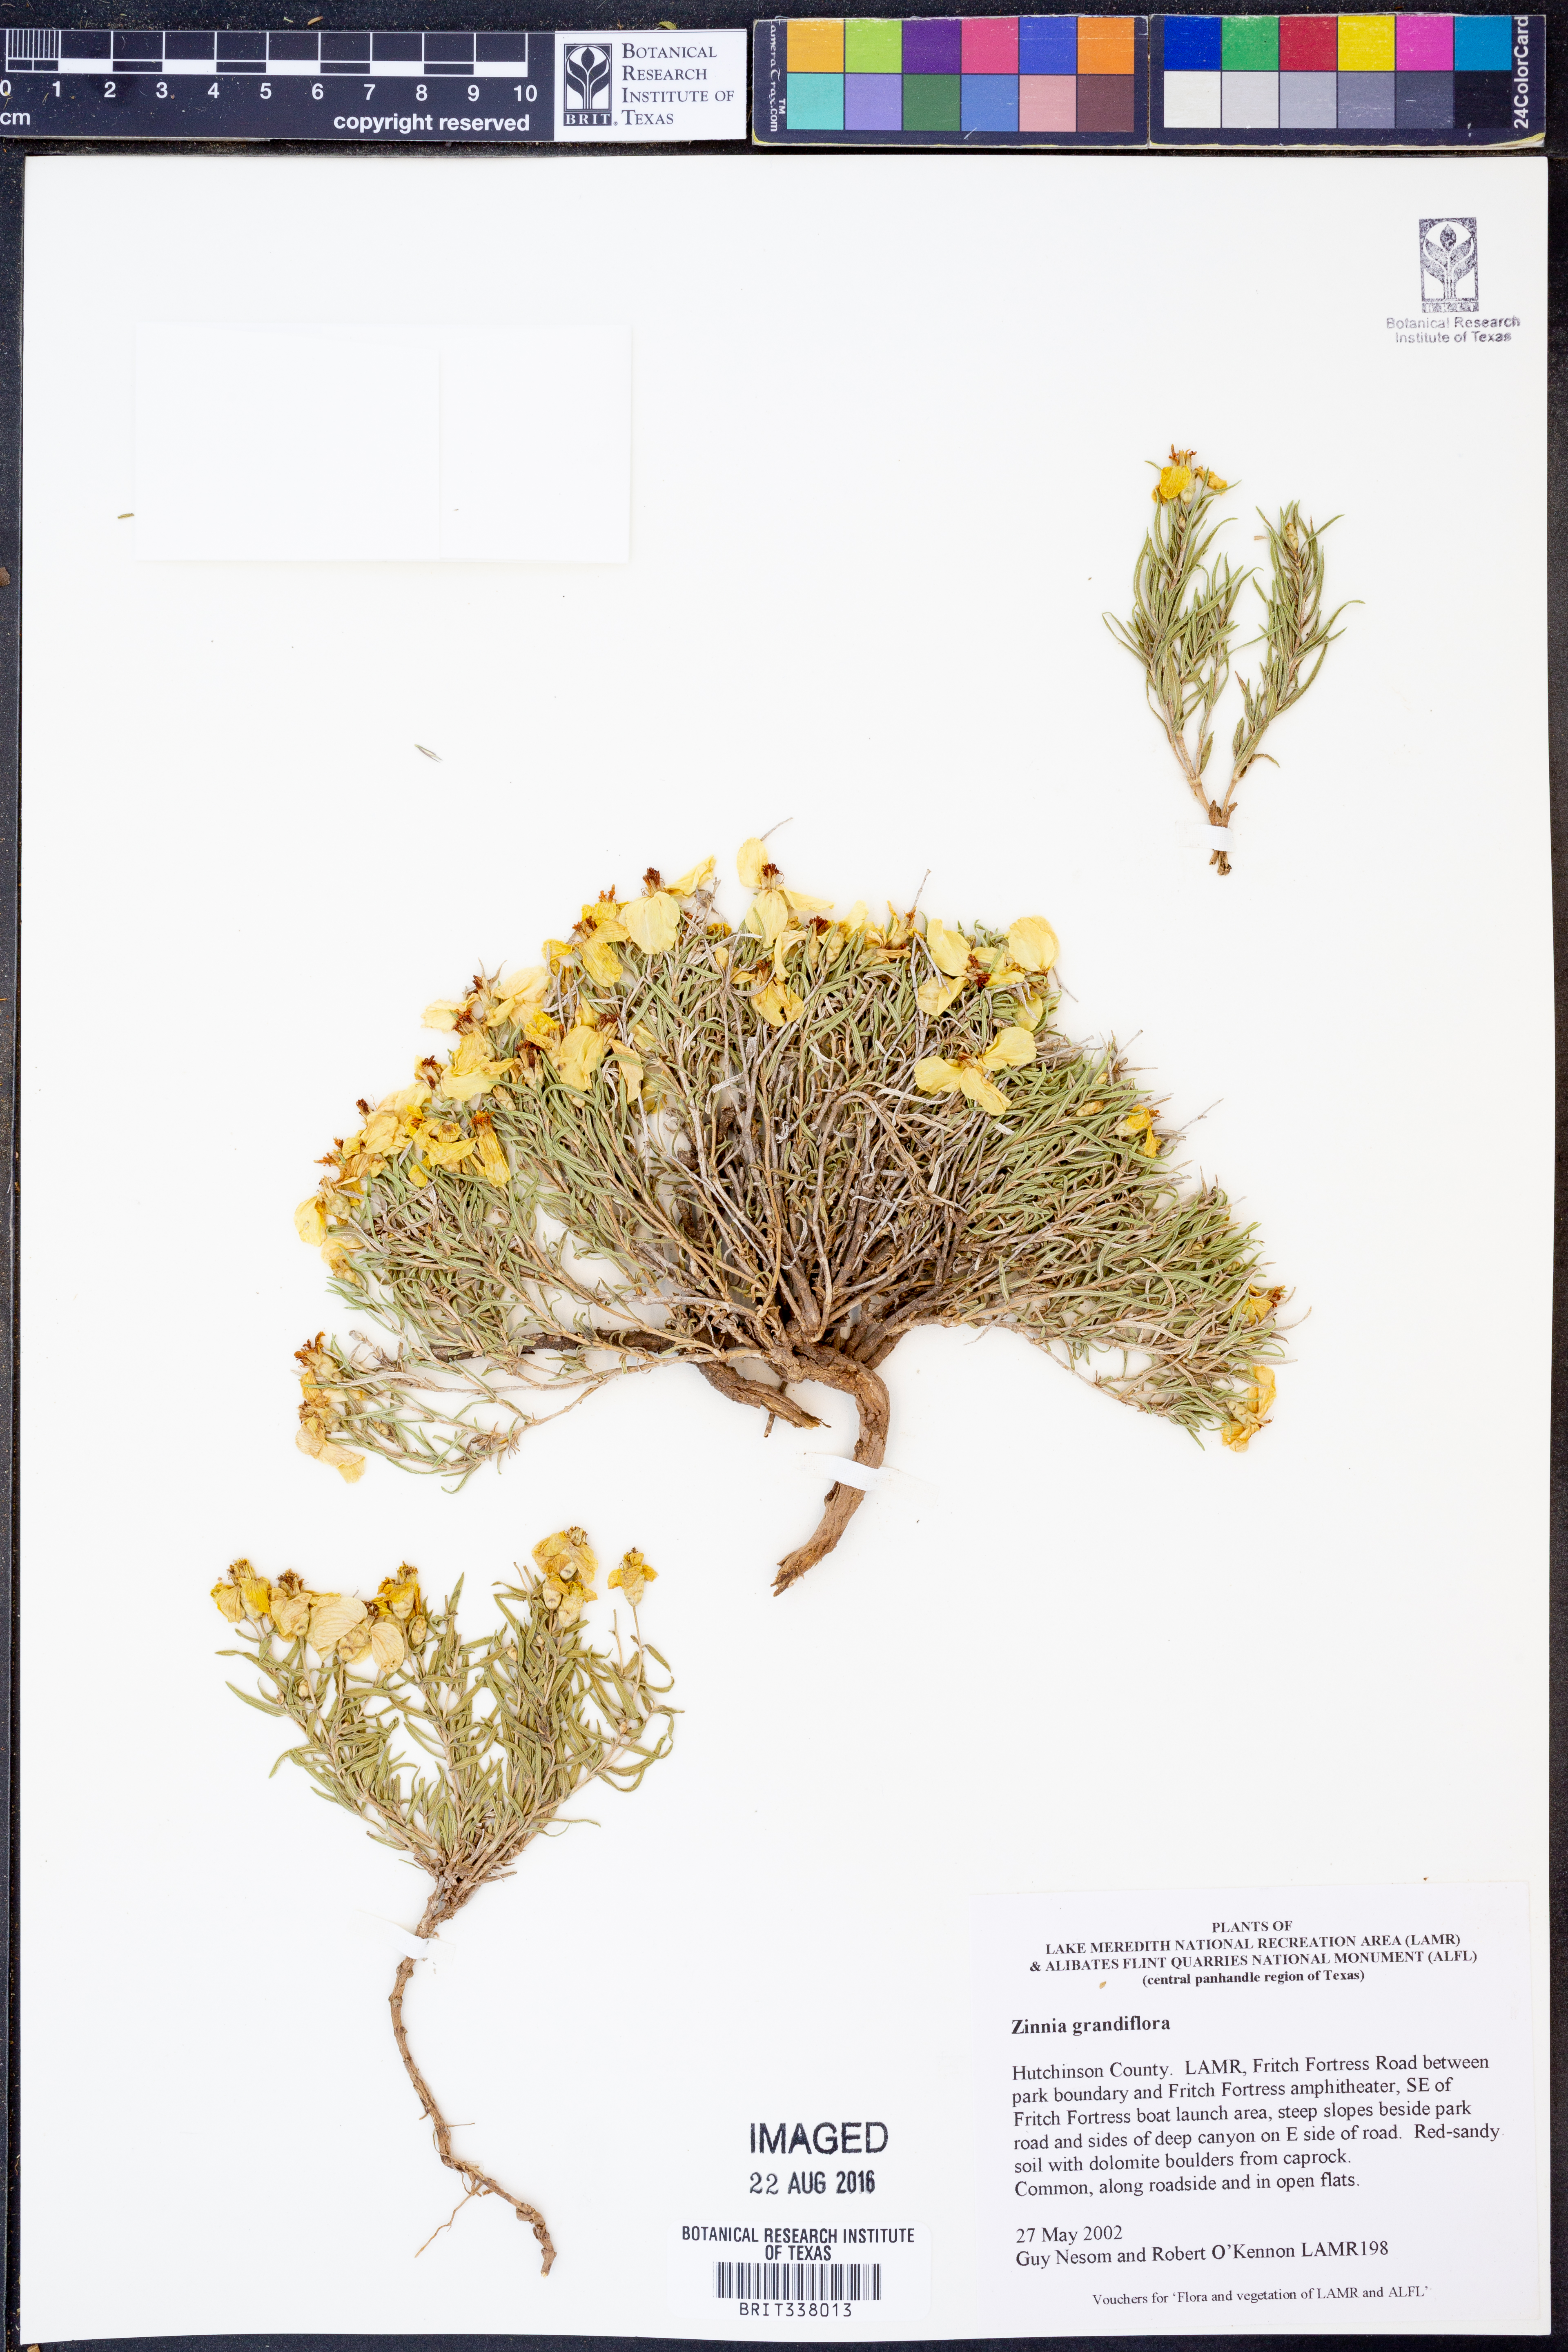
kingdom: Plantae
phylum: Tracheophyta
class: Magnoliopsida
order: Asterales
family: Asteraceae
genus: Zinnia
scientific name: Zinnia grandiflora
